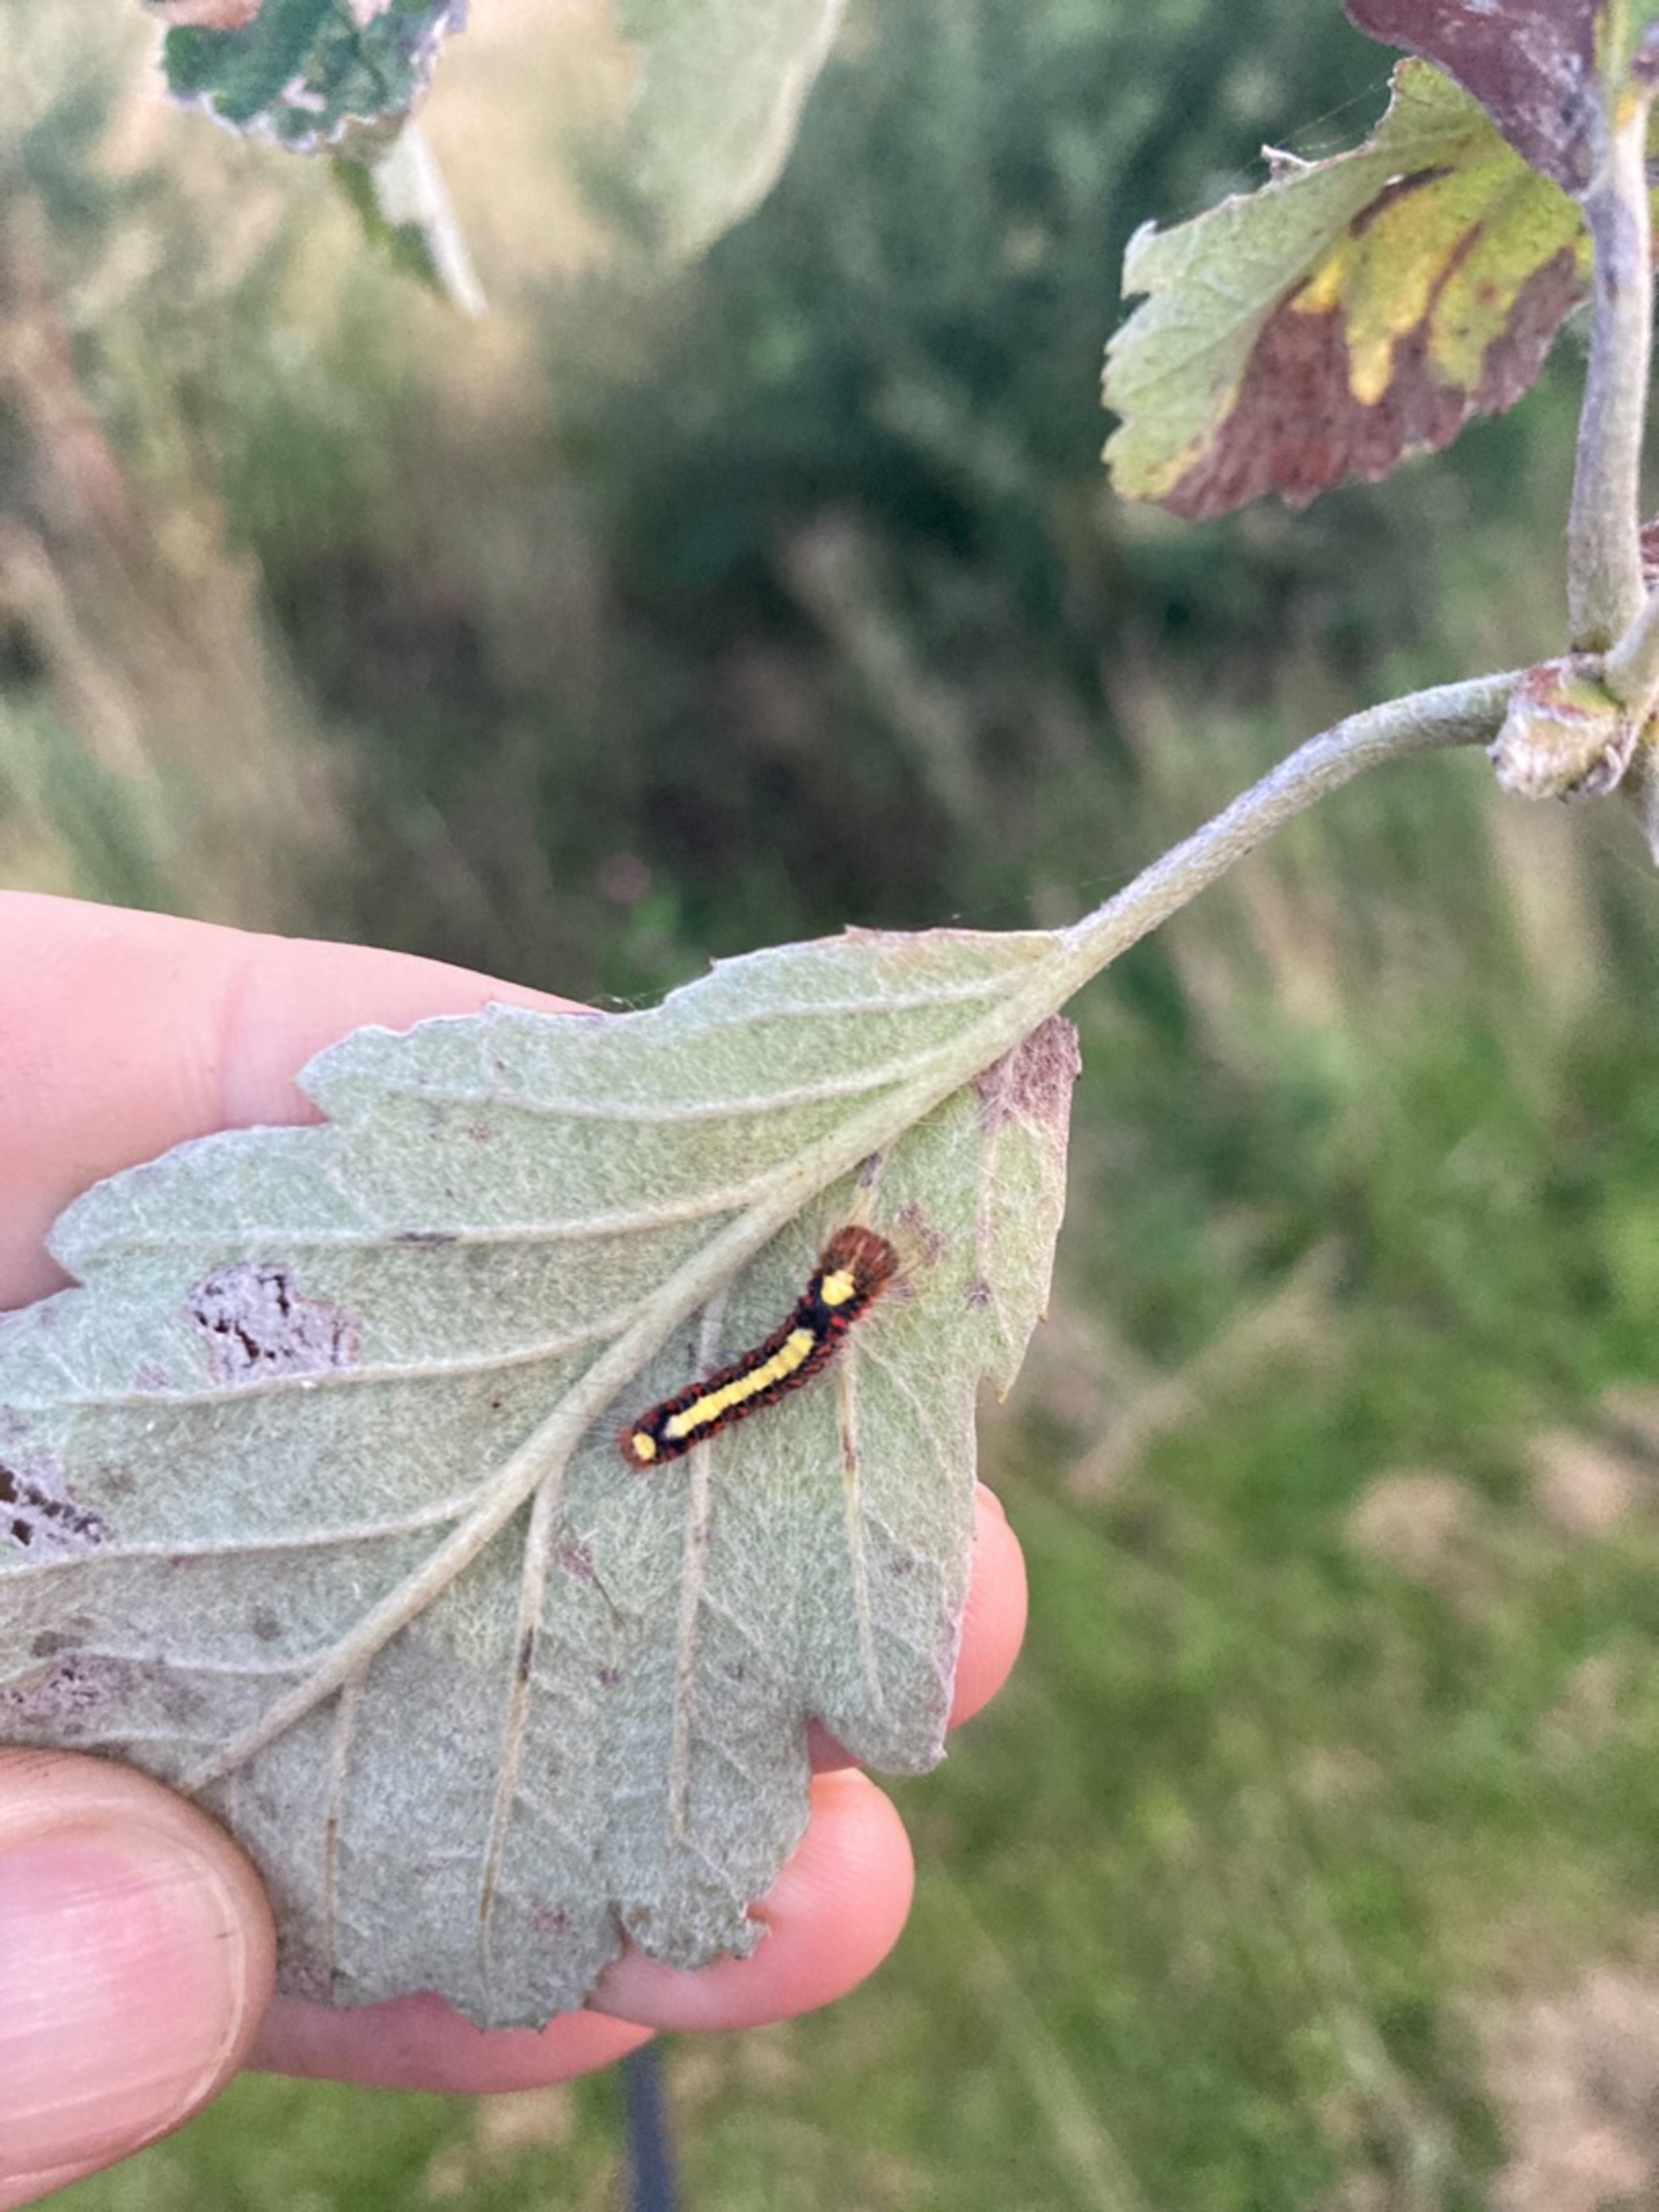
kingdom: Animalia
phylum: Arthropoda
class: Insecta
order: Lepidoptera
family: Noctuidae
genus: Acronicta
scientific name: Acronicta psi
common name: Psi-ugle
